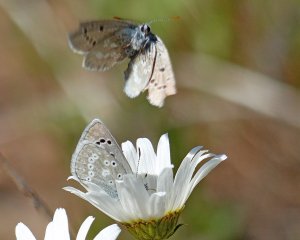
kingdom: Animalia
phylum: Arthropoda
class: Insecta
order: Lepidoptera
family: Lycaenidae
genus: Icaricia
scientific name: Icaricia icarioides
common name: Boisduval's Blue
